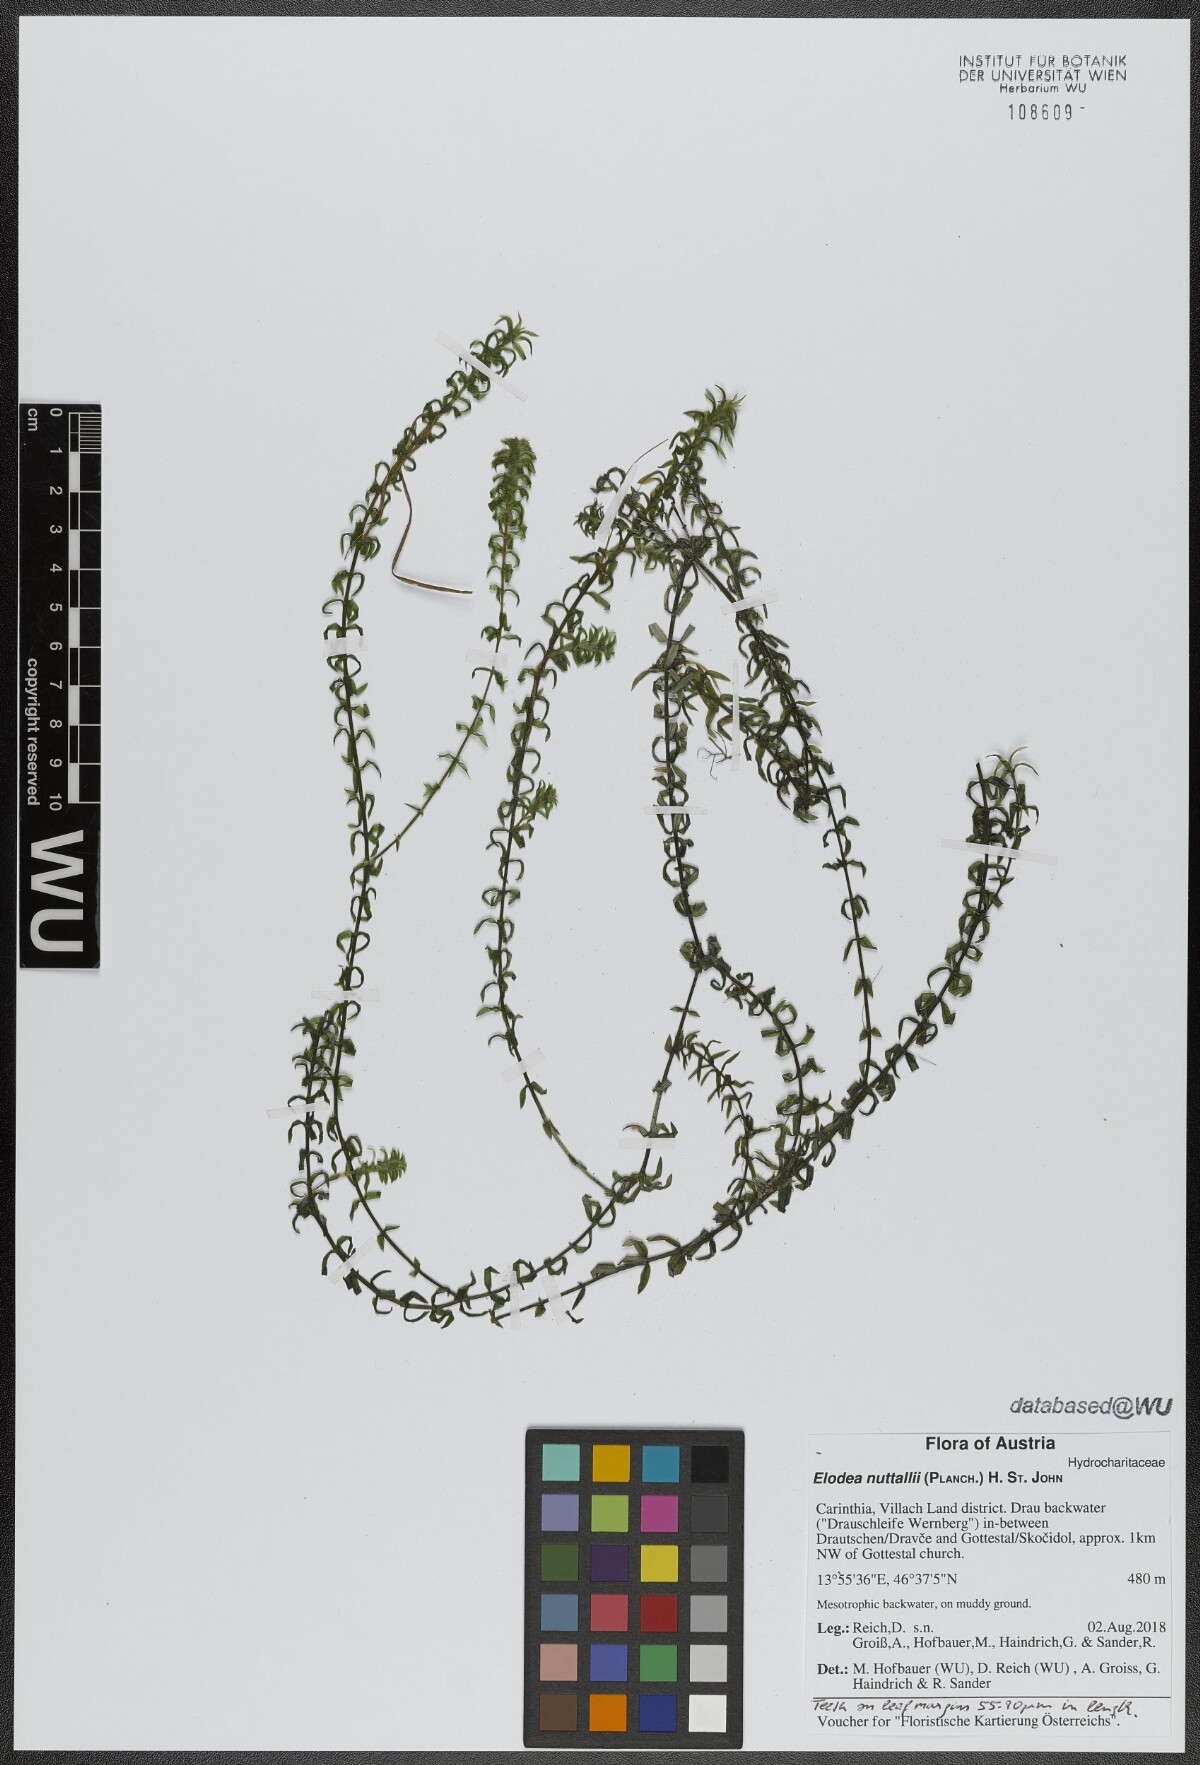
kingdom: Plantae
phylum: Tracheophyta
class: Liliopsida
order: Alismatales
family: Hydrocharitaceae
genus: Elodea
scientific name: Elodea nuttallii
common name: Nuttall's waterweed
